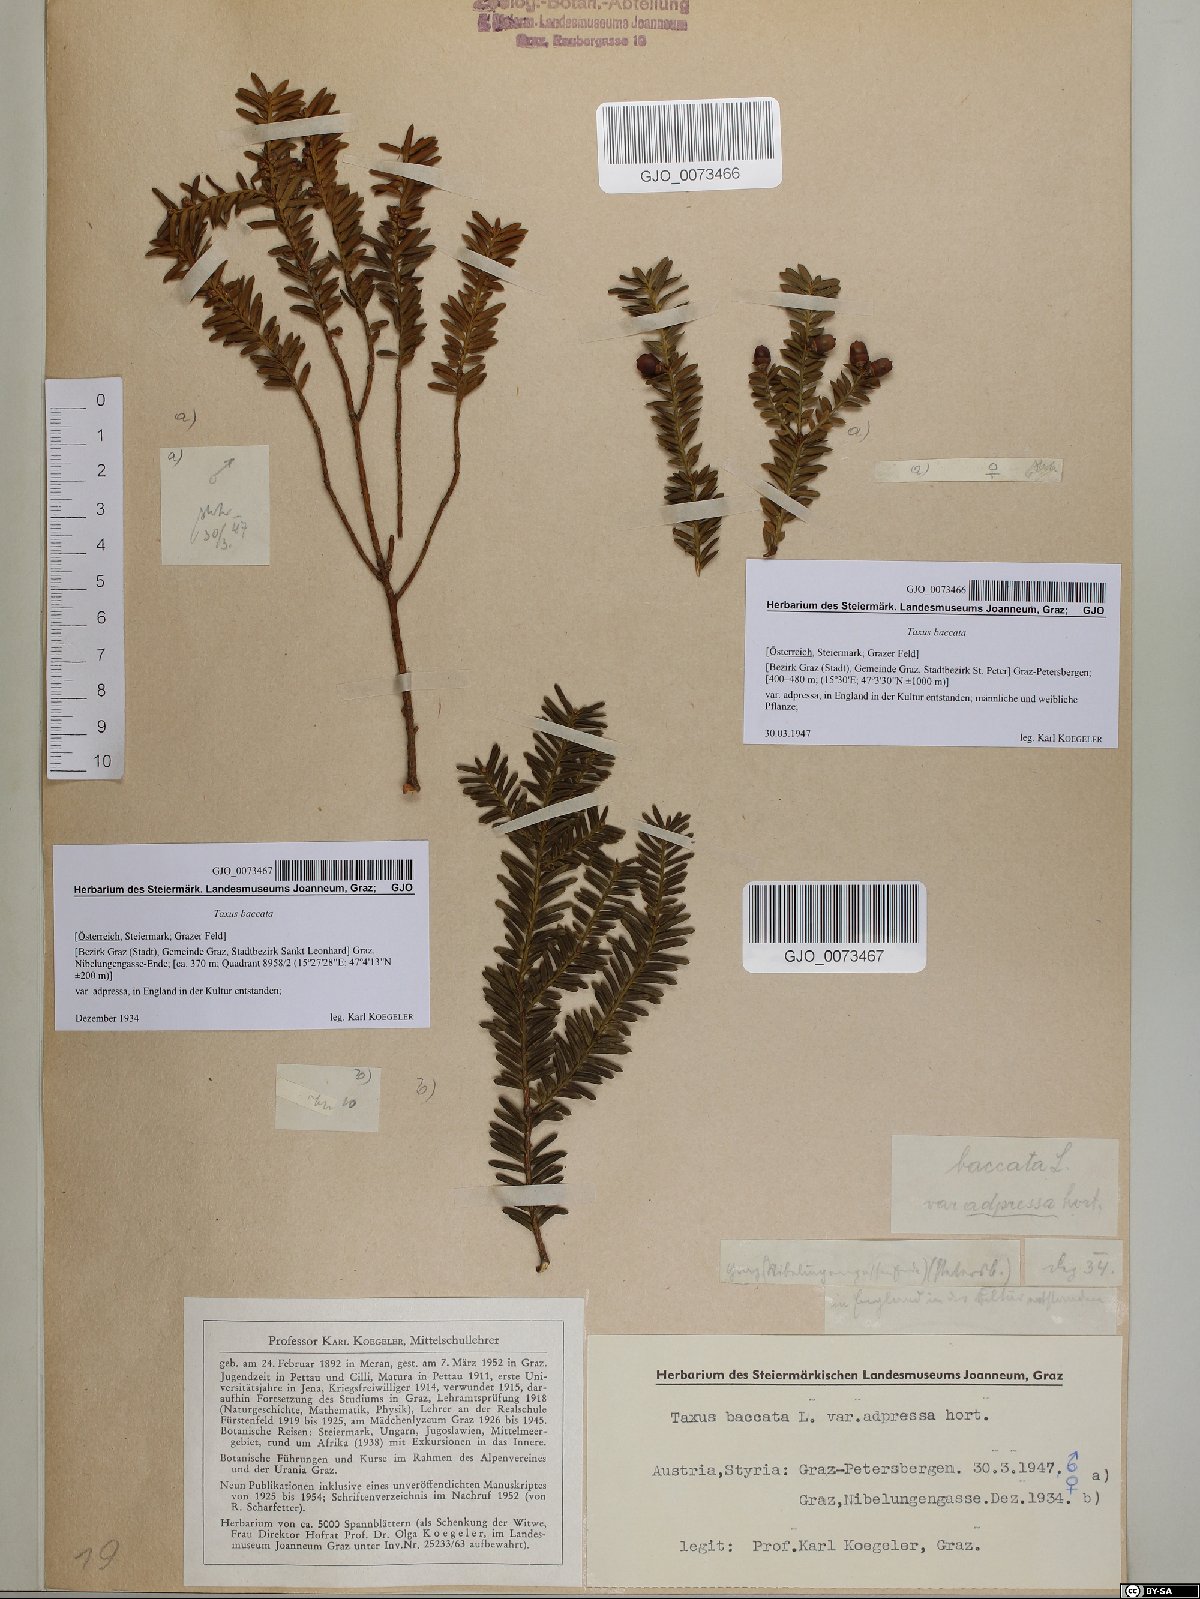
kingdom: Plantae
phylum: Tracheophyta
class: Pinopsida
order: Pinales
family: Taxaceae
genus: Taxus
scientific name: Taxus baccata
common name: Yew
